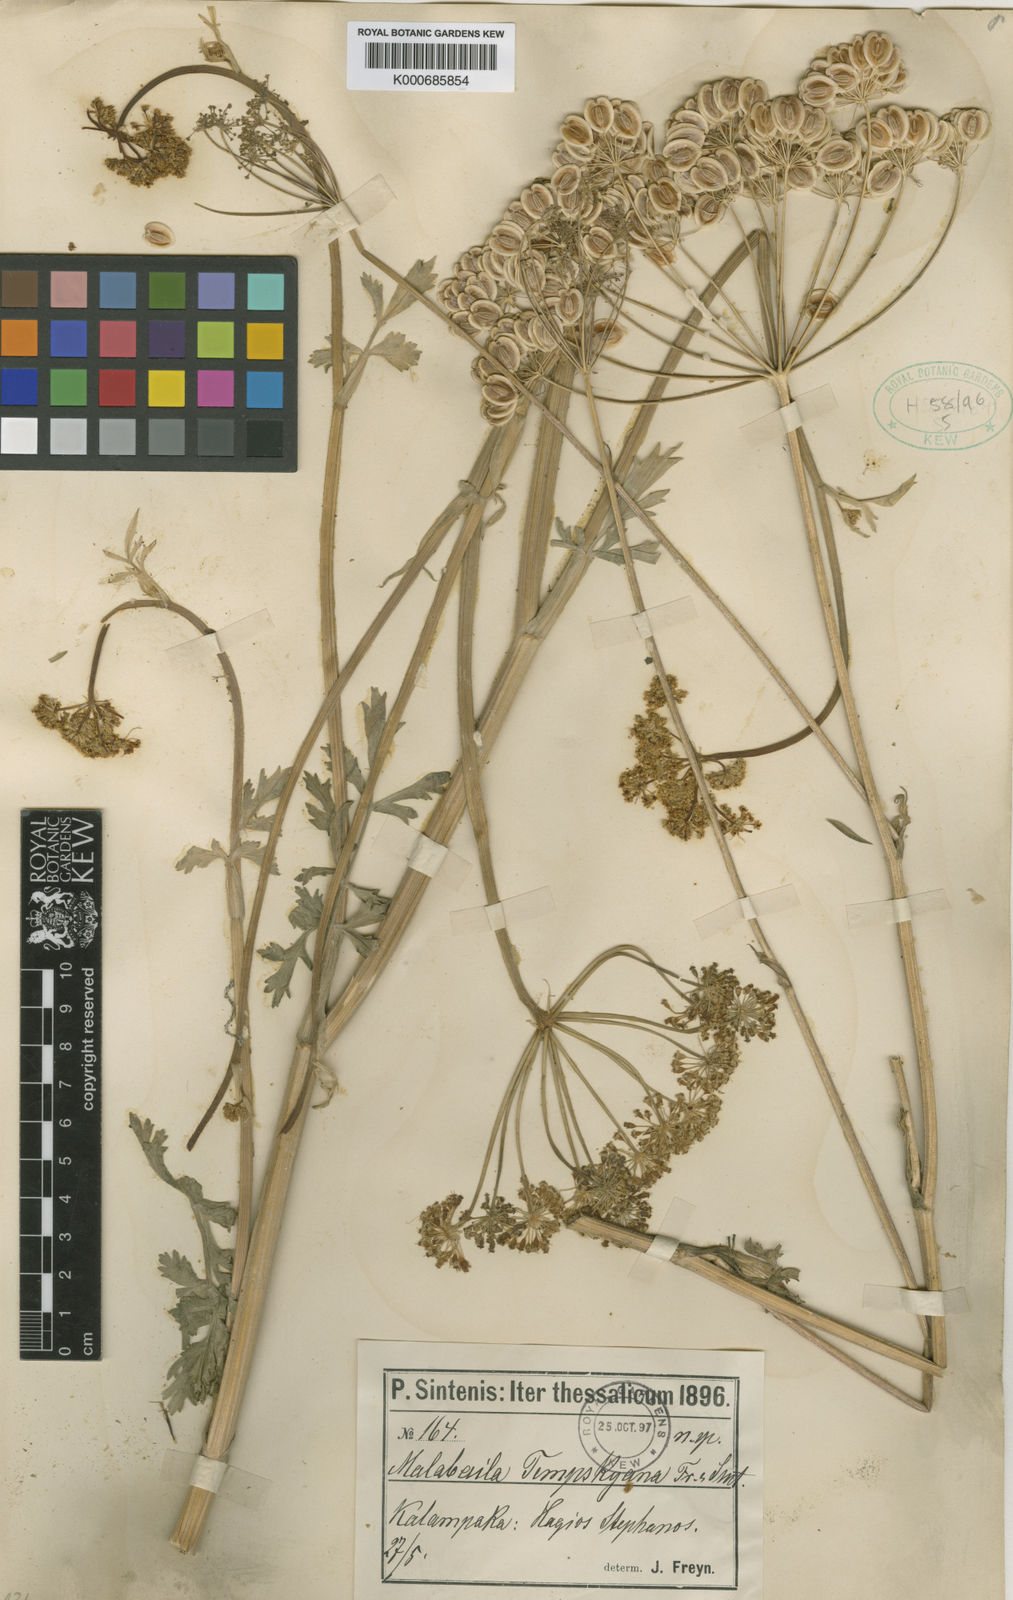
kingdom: Plantae
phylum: Tracheophyta
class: Magnoliopsida
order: Apiales
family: Apiaceae
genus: Pastinaca
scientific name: Pastinaca
